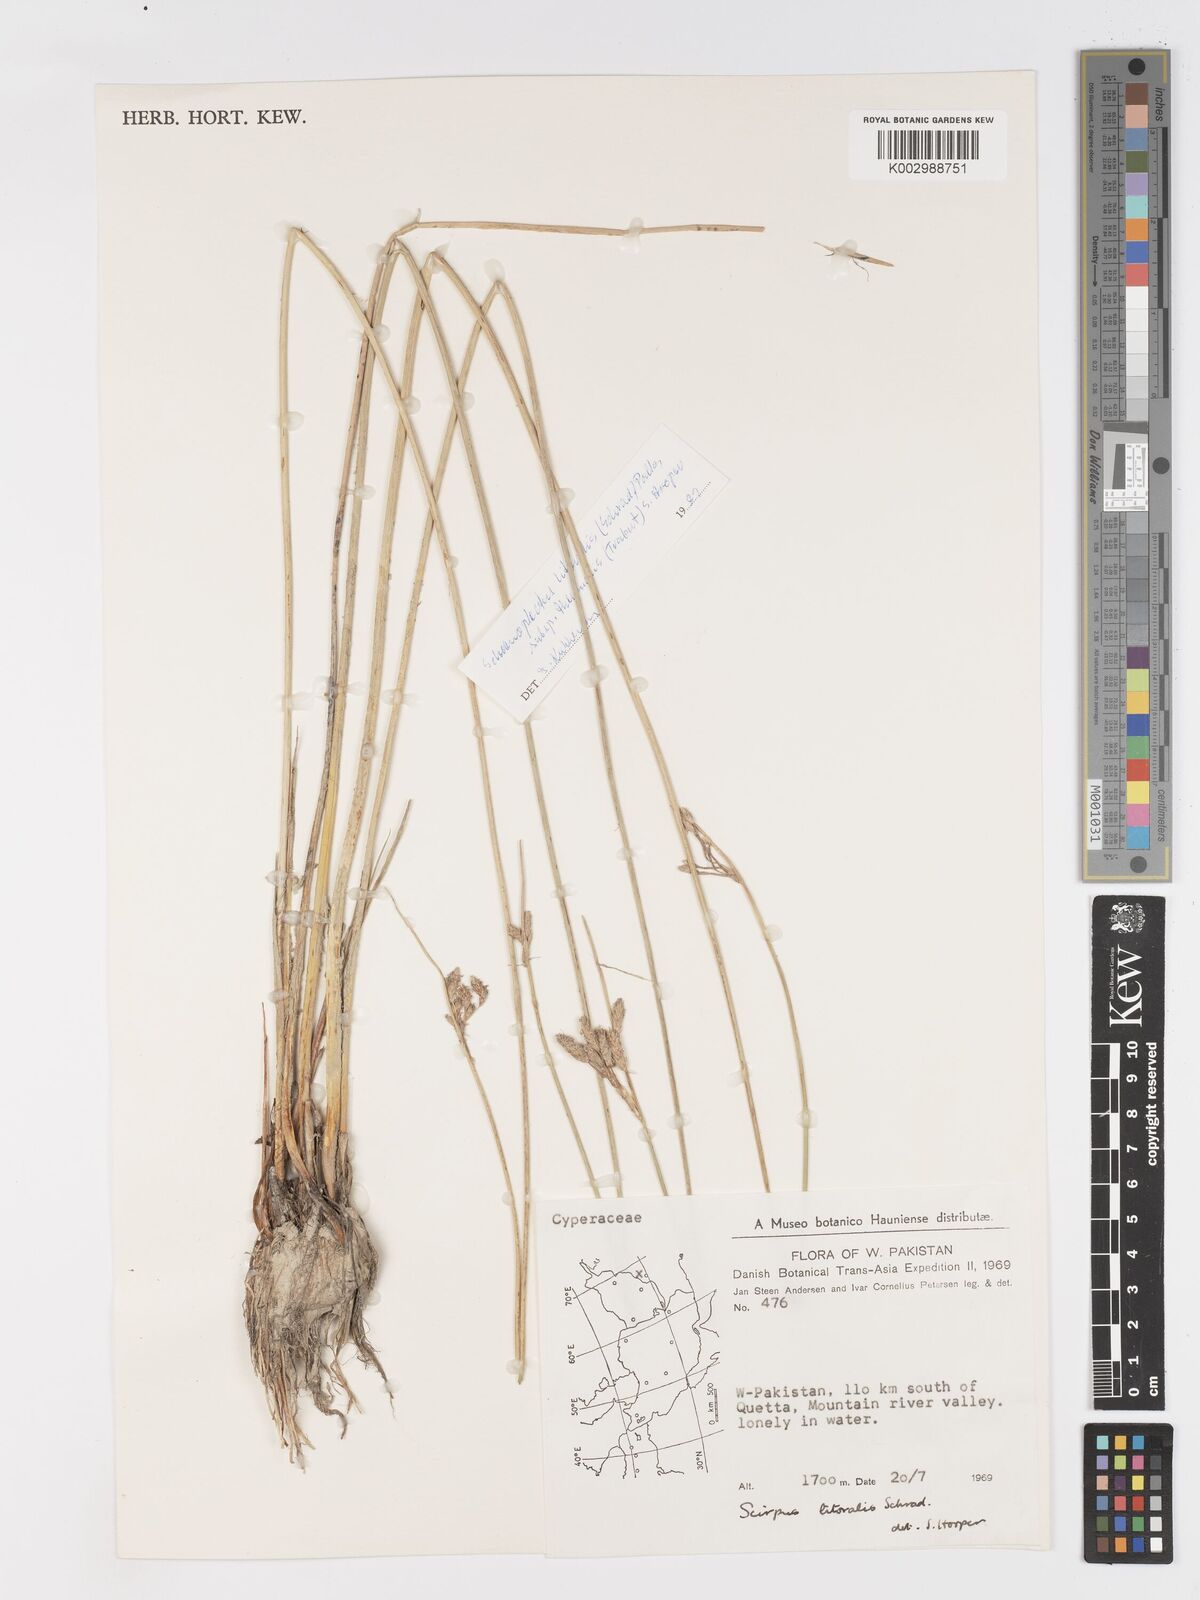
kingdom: Plantae
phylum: Tracheophyta
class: Liliopsida
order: Poales
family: Cyperaceae
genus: Schoenoplectus
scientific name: Schoenoplectus litoralis
